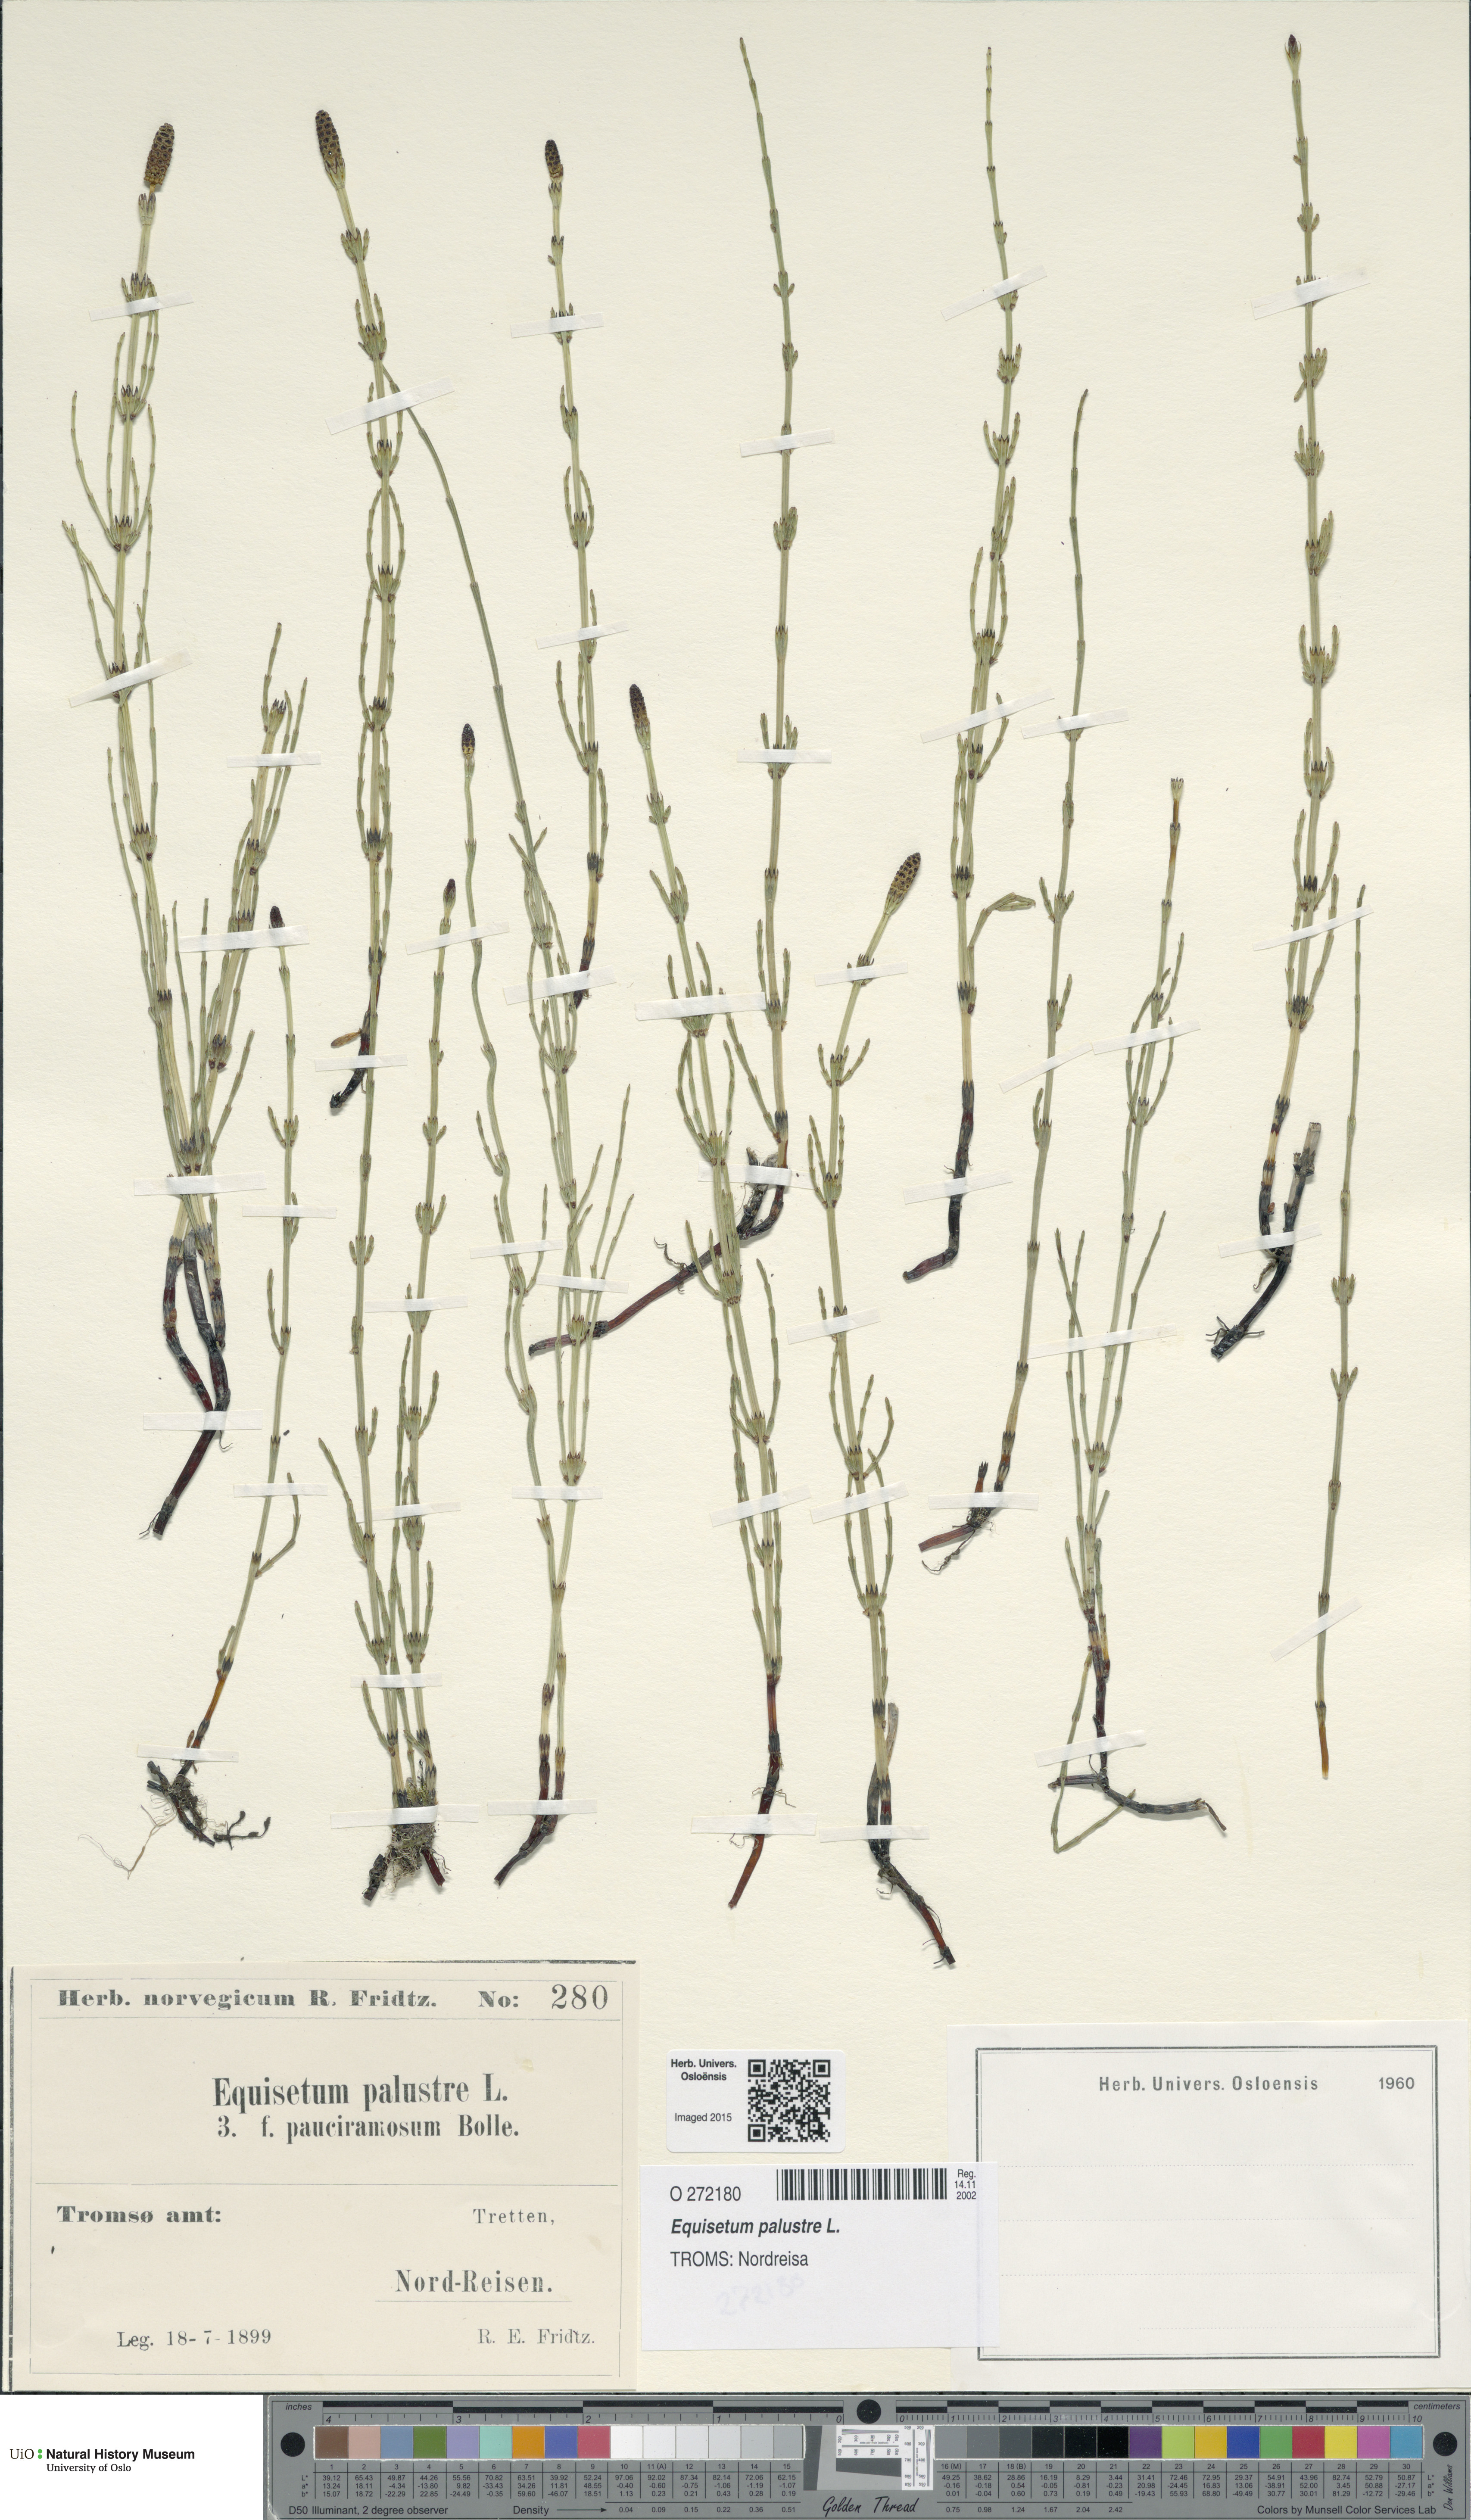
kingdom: Plantae
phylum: Tracheophyta
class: Polypodiopsida
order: Equisetales
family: Equisetaceae
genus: Equisetum
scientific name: Equisetum palustre
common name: Marsh horsetail
